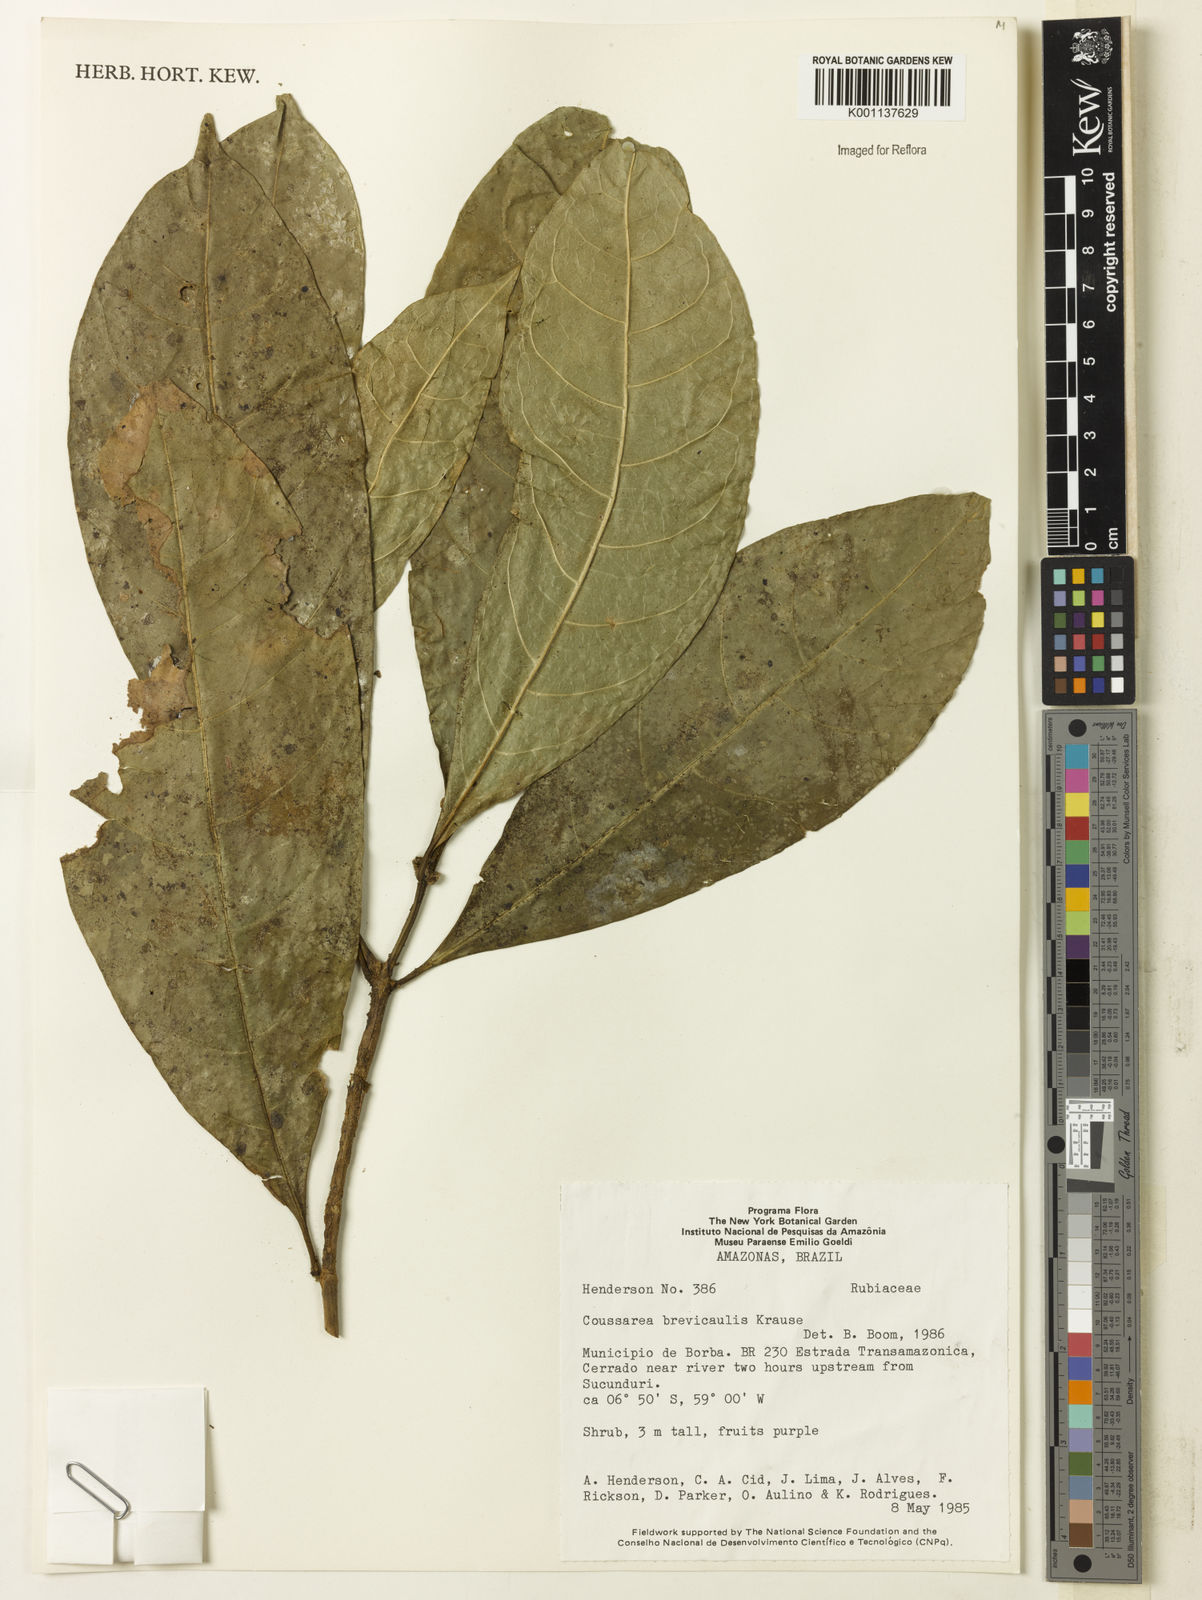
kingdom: Plantae
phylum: Tracheophyta
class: Magnoliopsida
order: Gentianales
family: Rubiaceae
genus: Coussarea
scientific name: Coussarea brevicaulis
